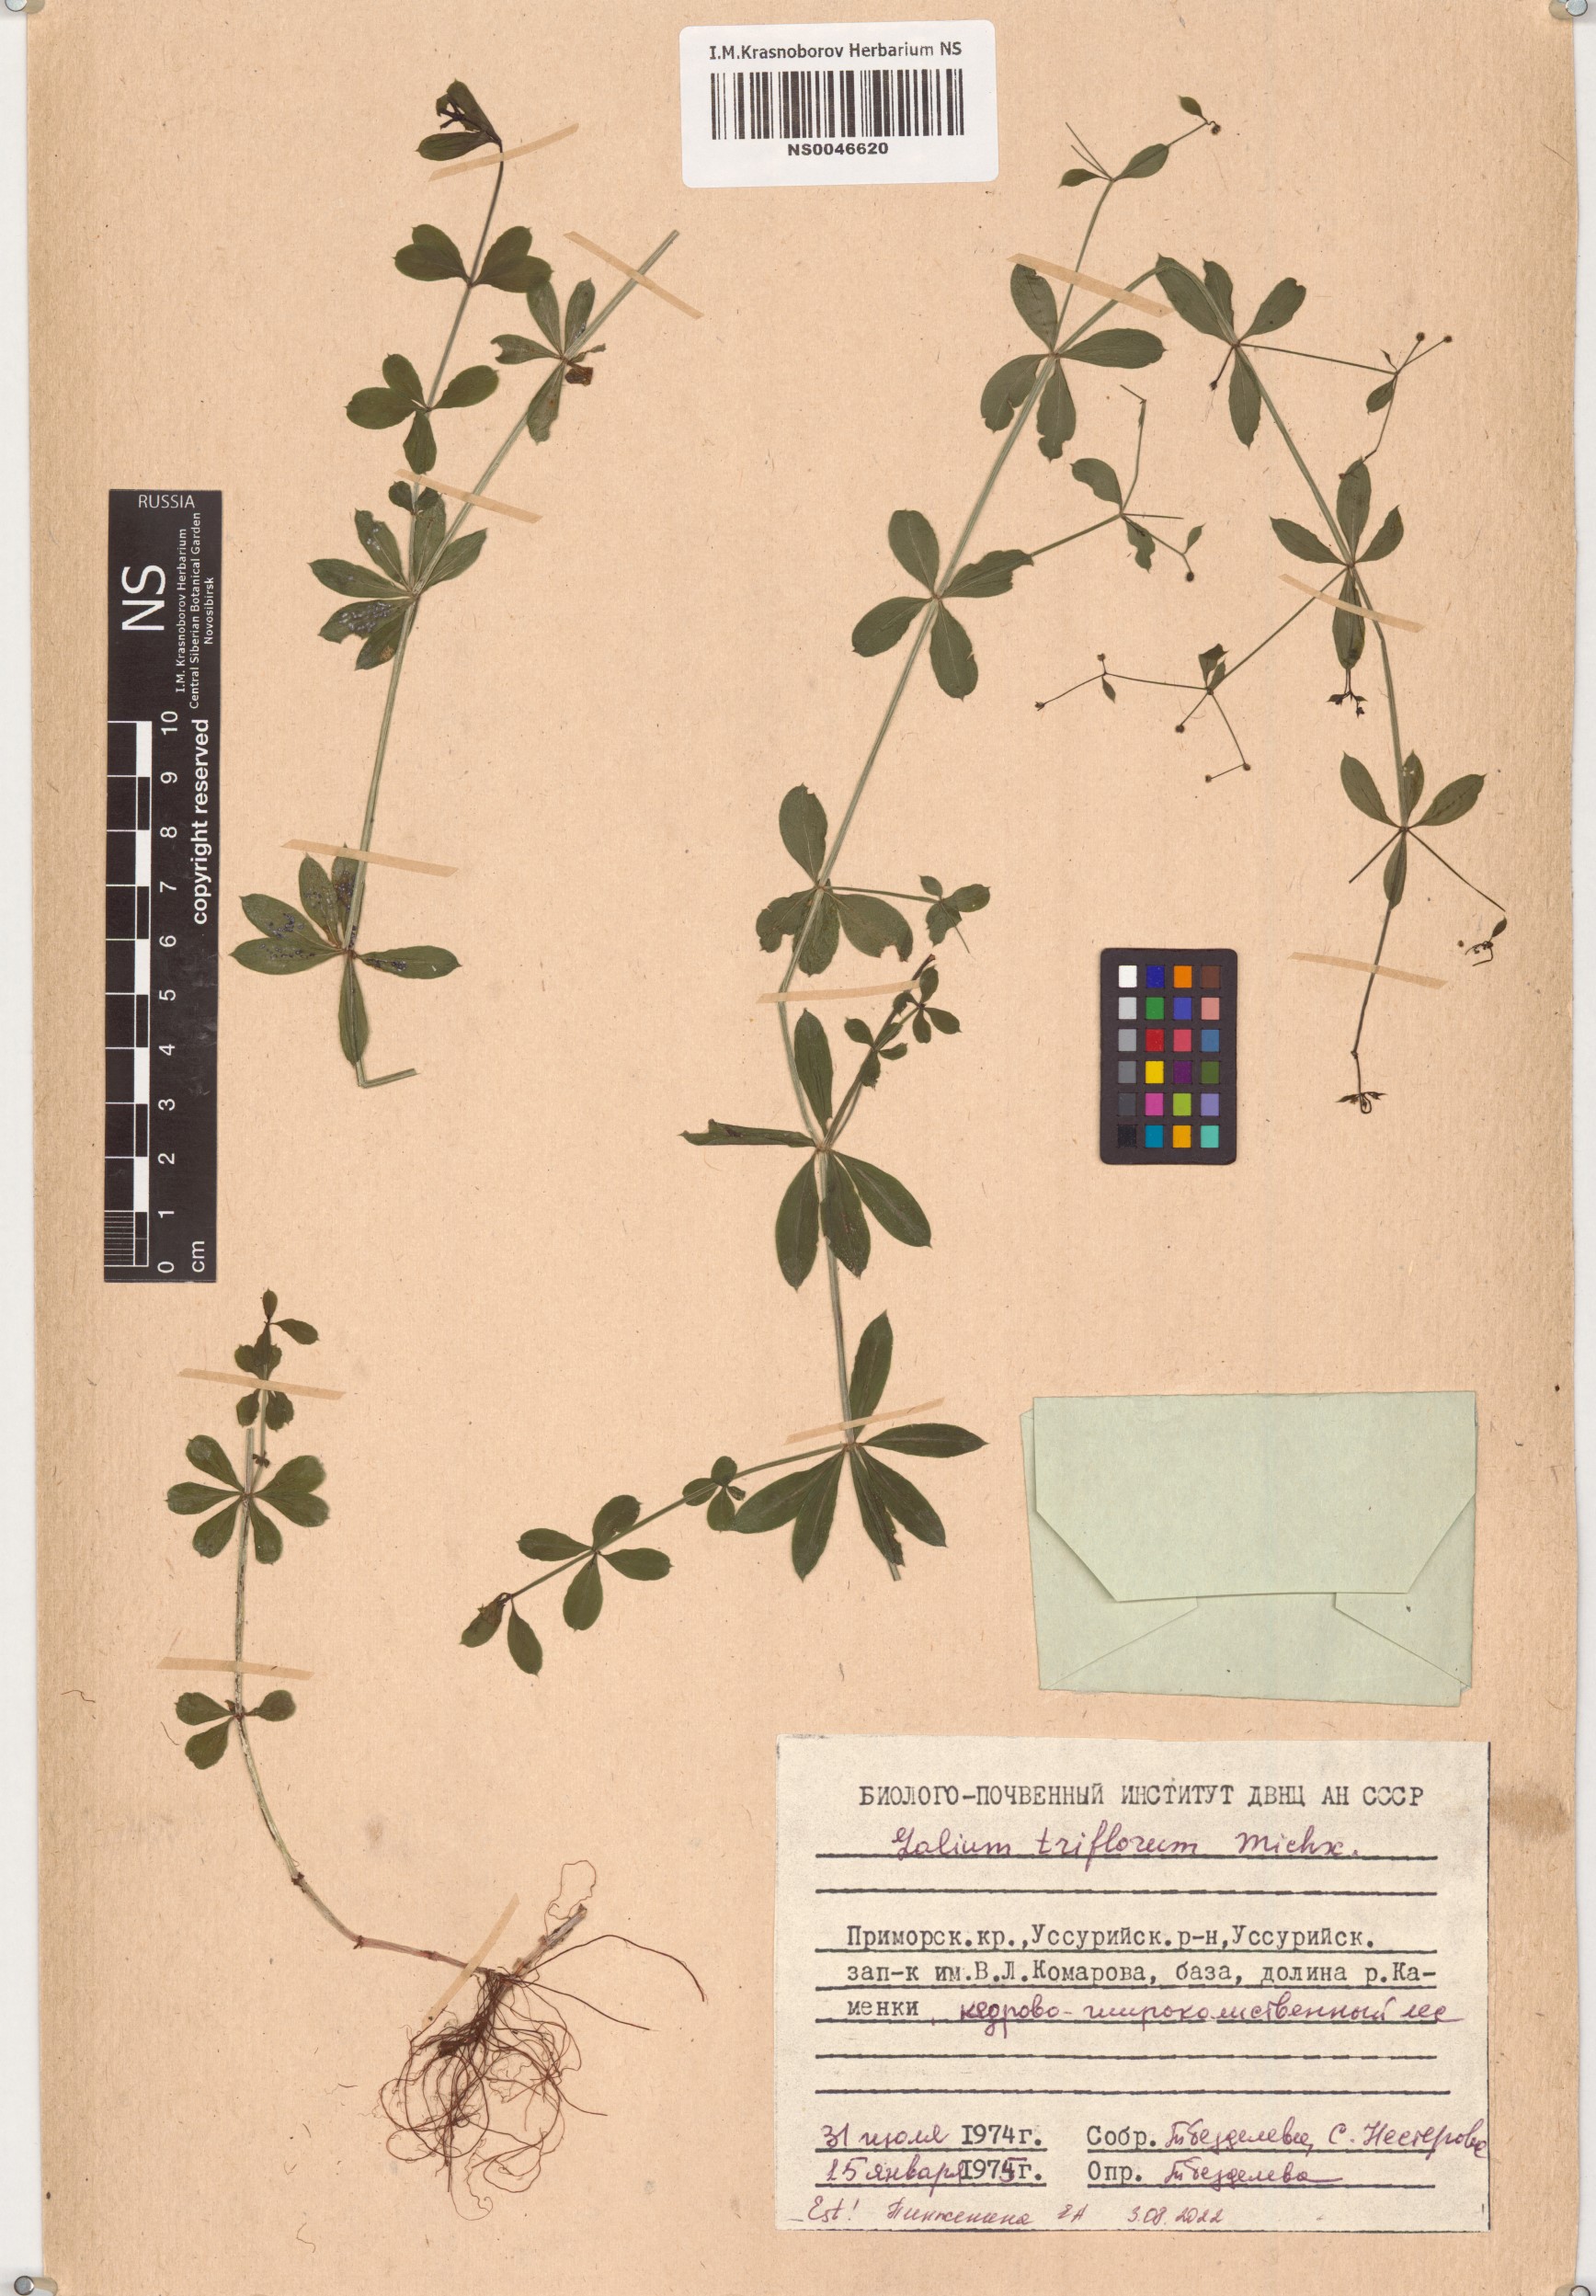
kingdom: Plantae
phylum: Tracheophyta
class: Magnoliopsida
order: Gentianales
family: Rubiaceae
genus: Galium
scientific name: Galium triflorum
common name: Fragrant bedstraw
